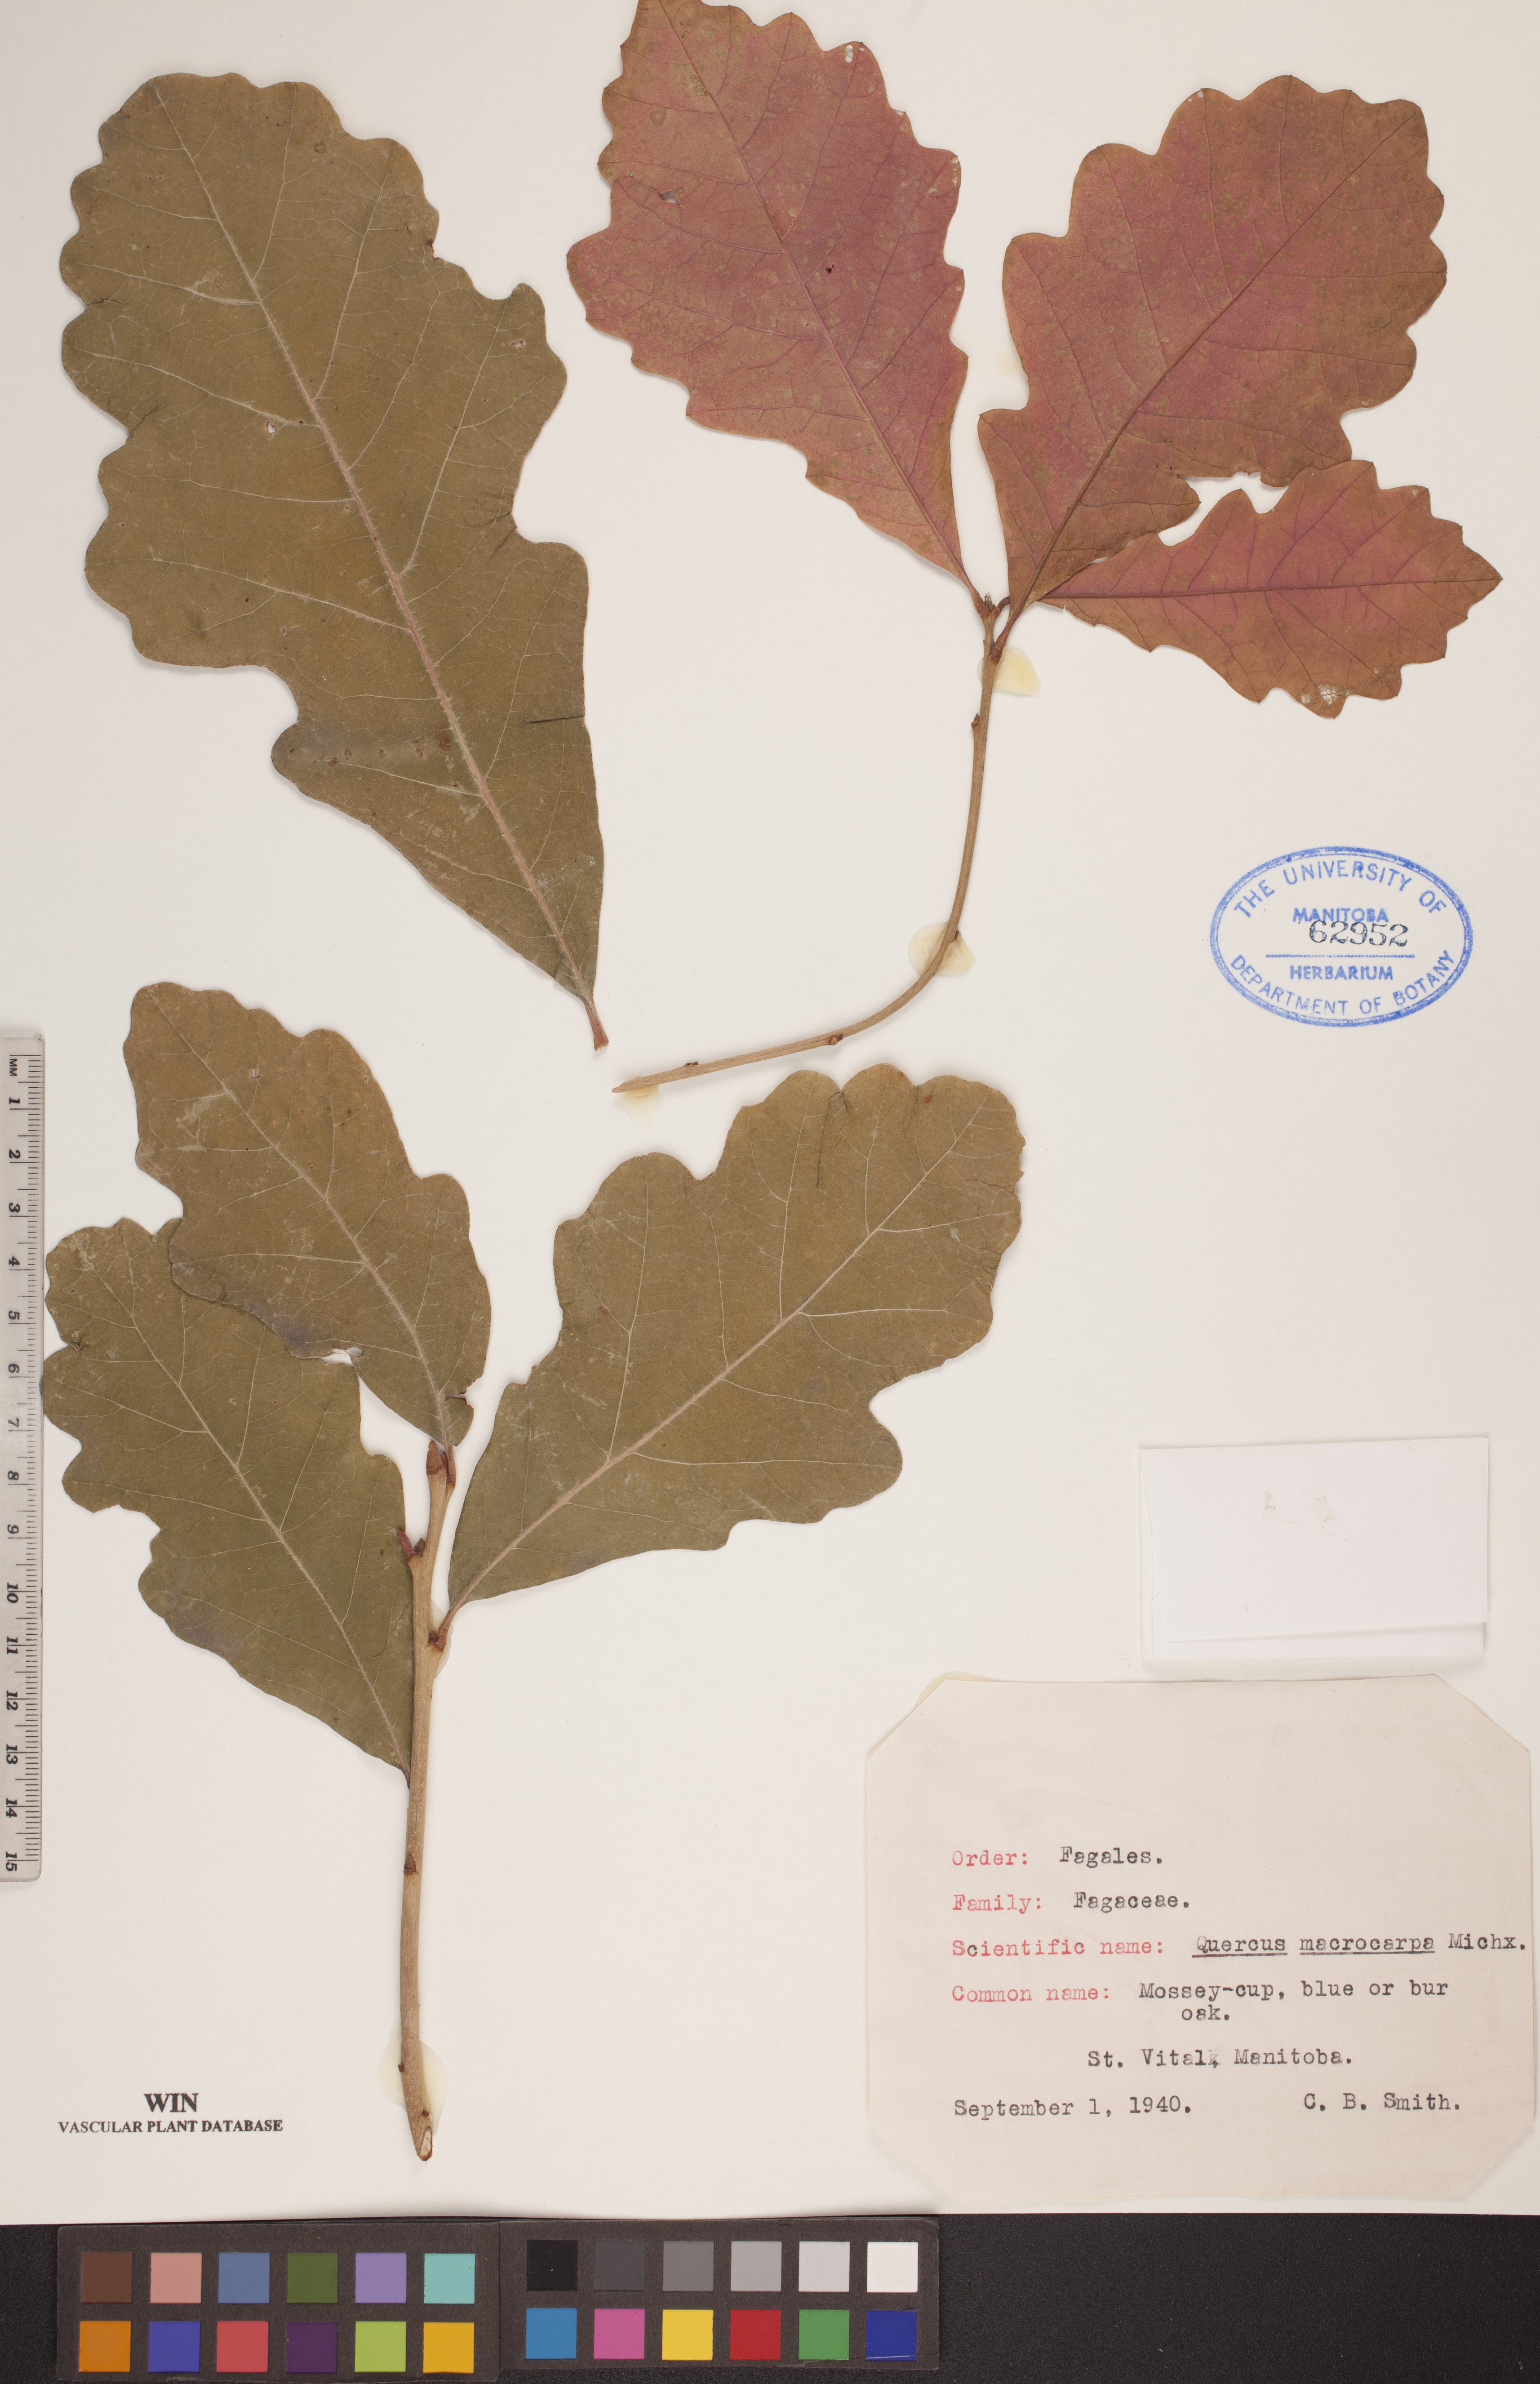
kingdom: Plantae
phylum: Tracheophyta
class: Magnoliopsida
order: Fagales
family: Fagaceae
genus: Quercus
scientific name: Quercus macrocarpa
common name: Bur oak
